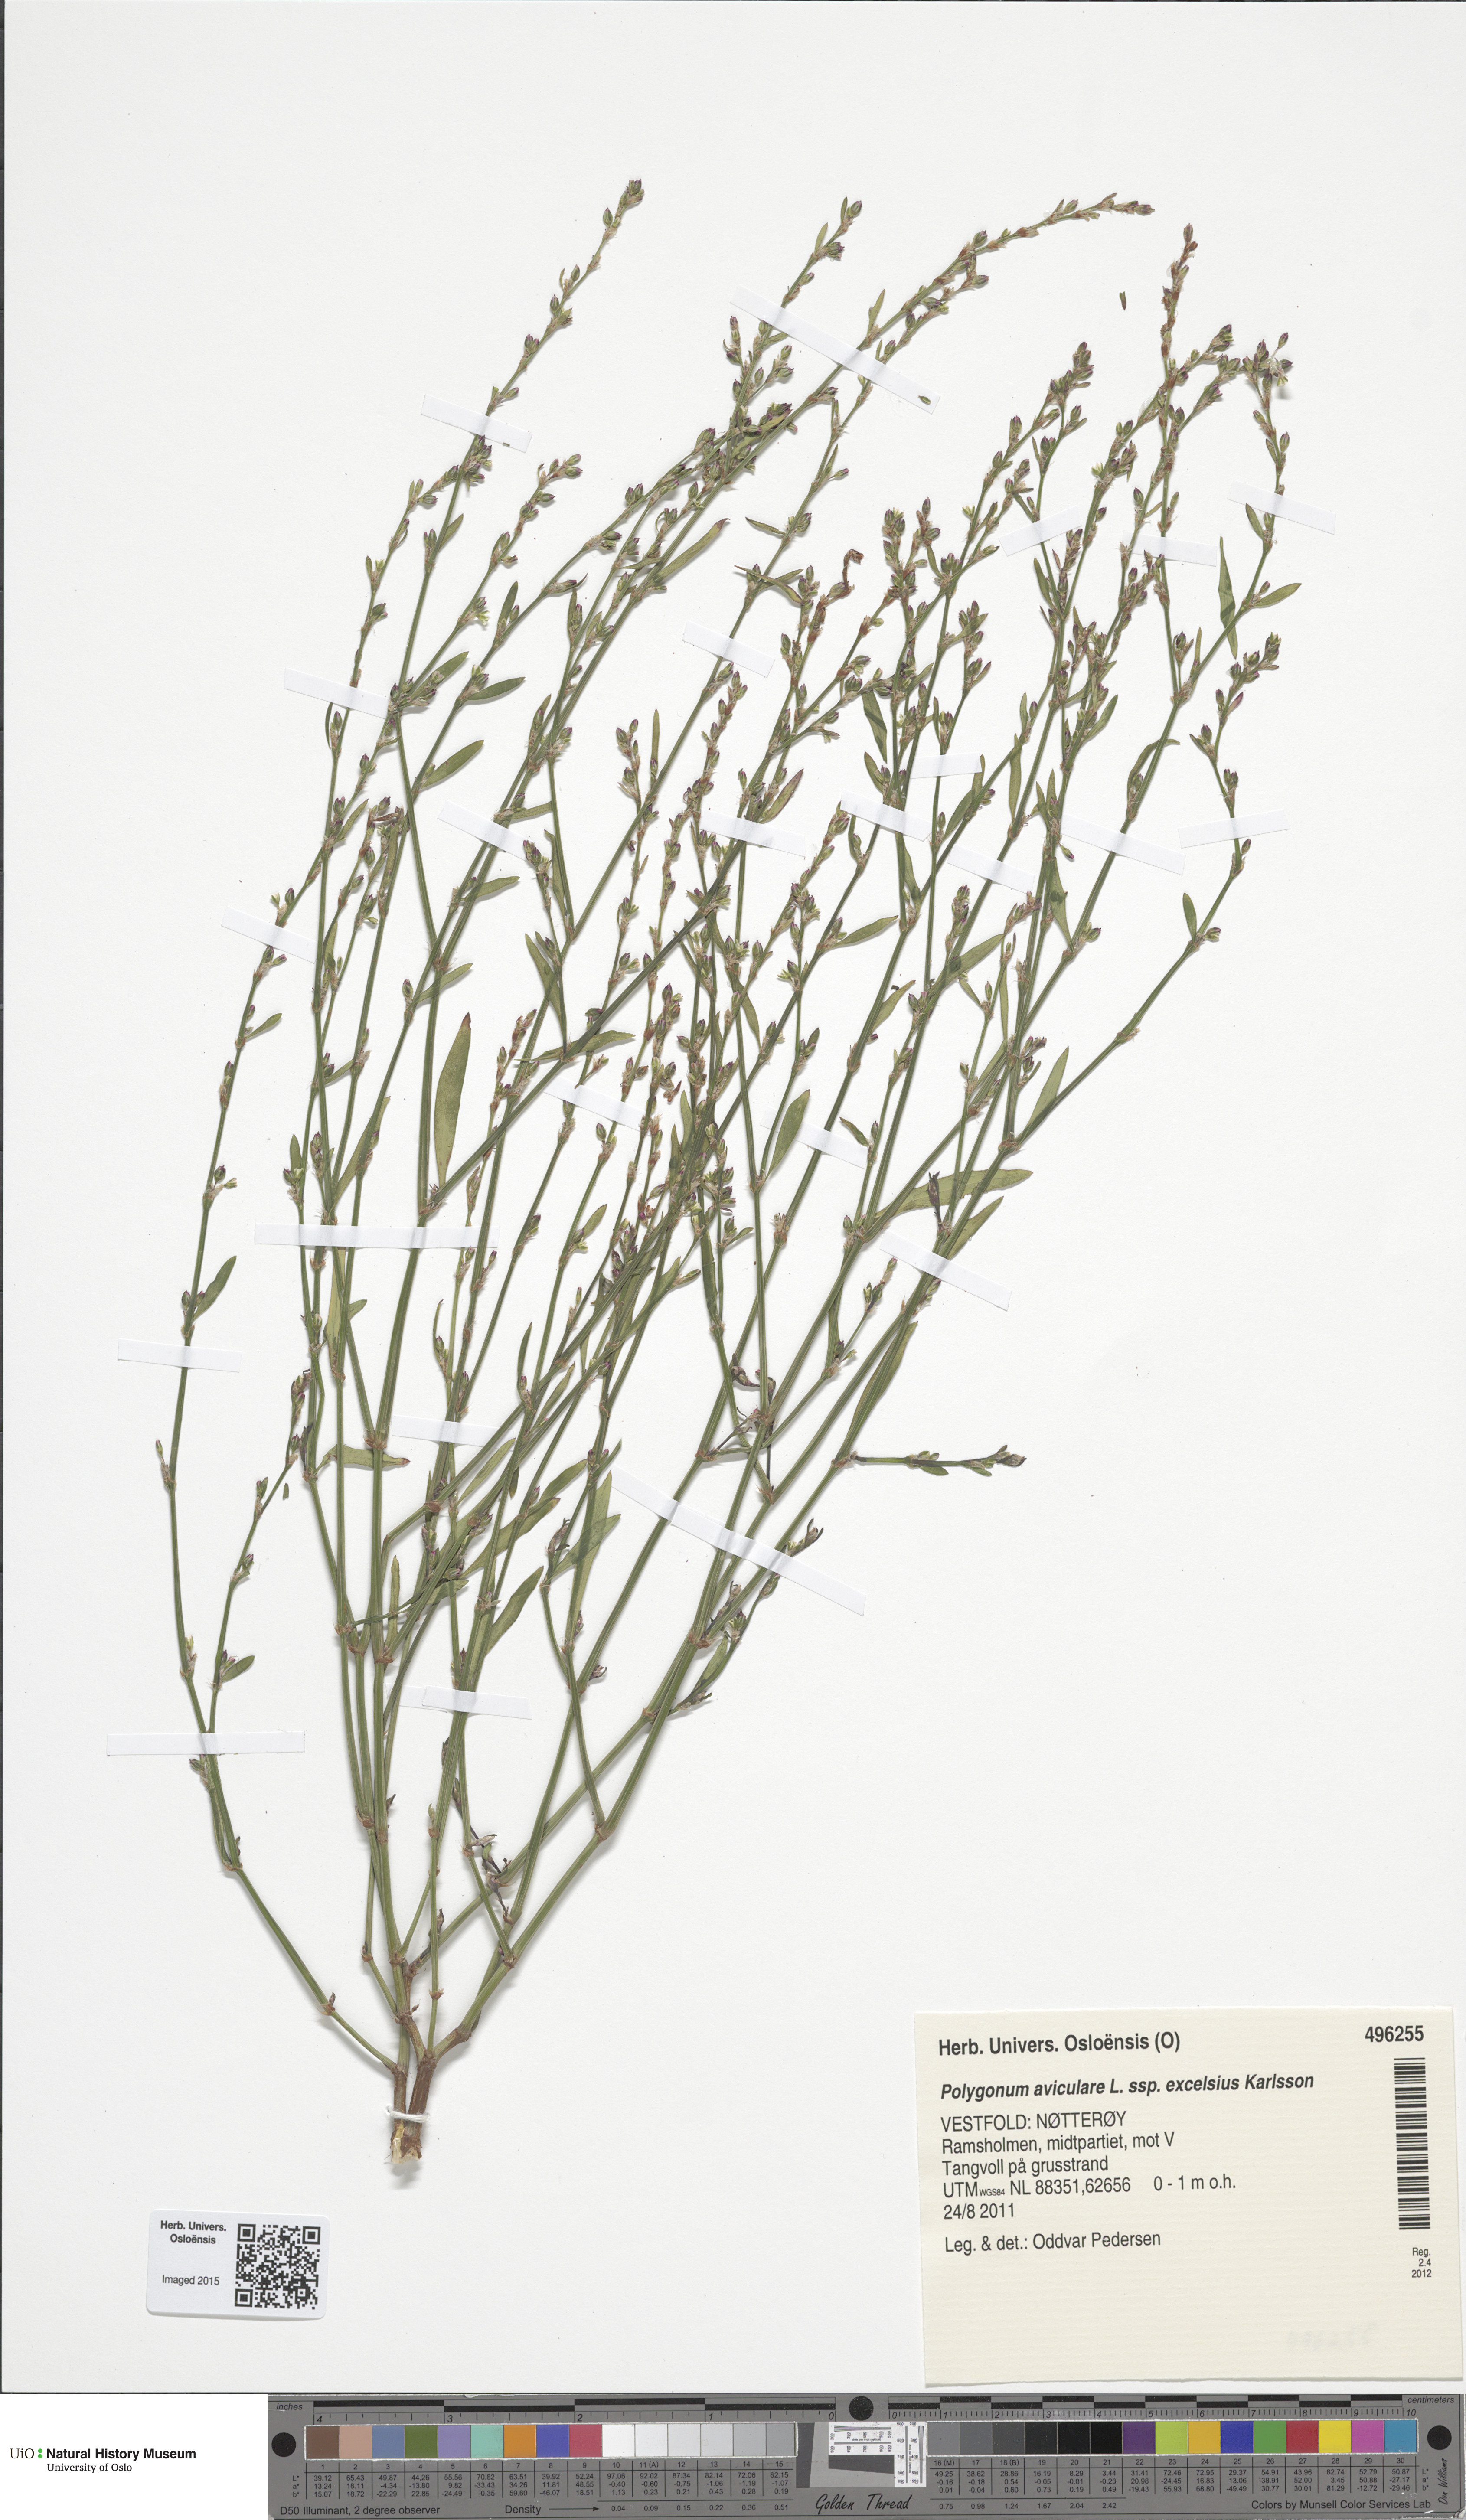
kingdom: Plantae
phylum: Tracheophyta
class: Magnoliopsida
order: Caryophyllales
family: Polygonaceae
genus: Polygonum
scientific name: Polygonum excelsius
